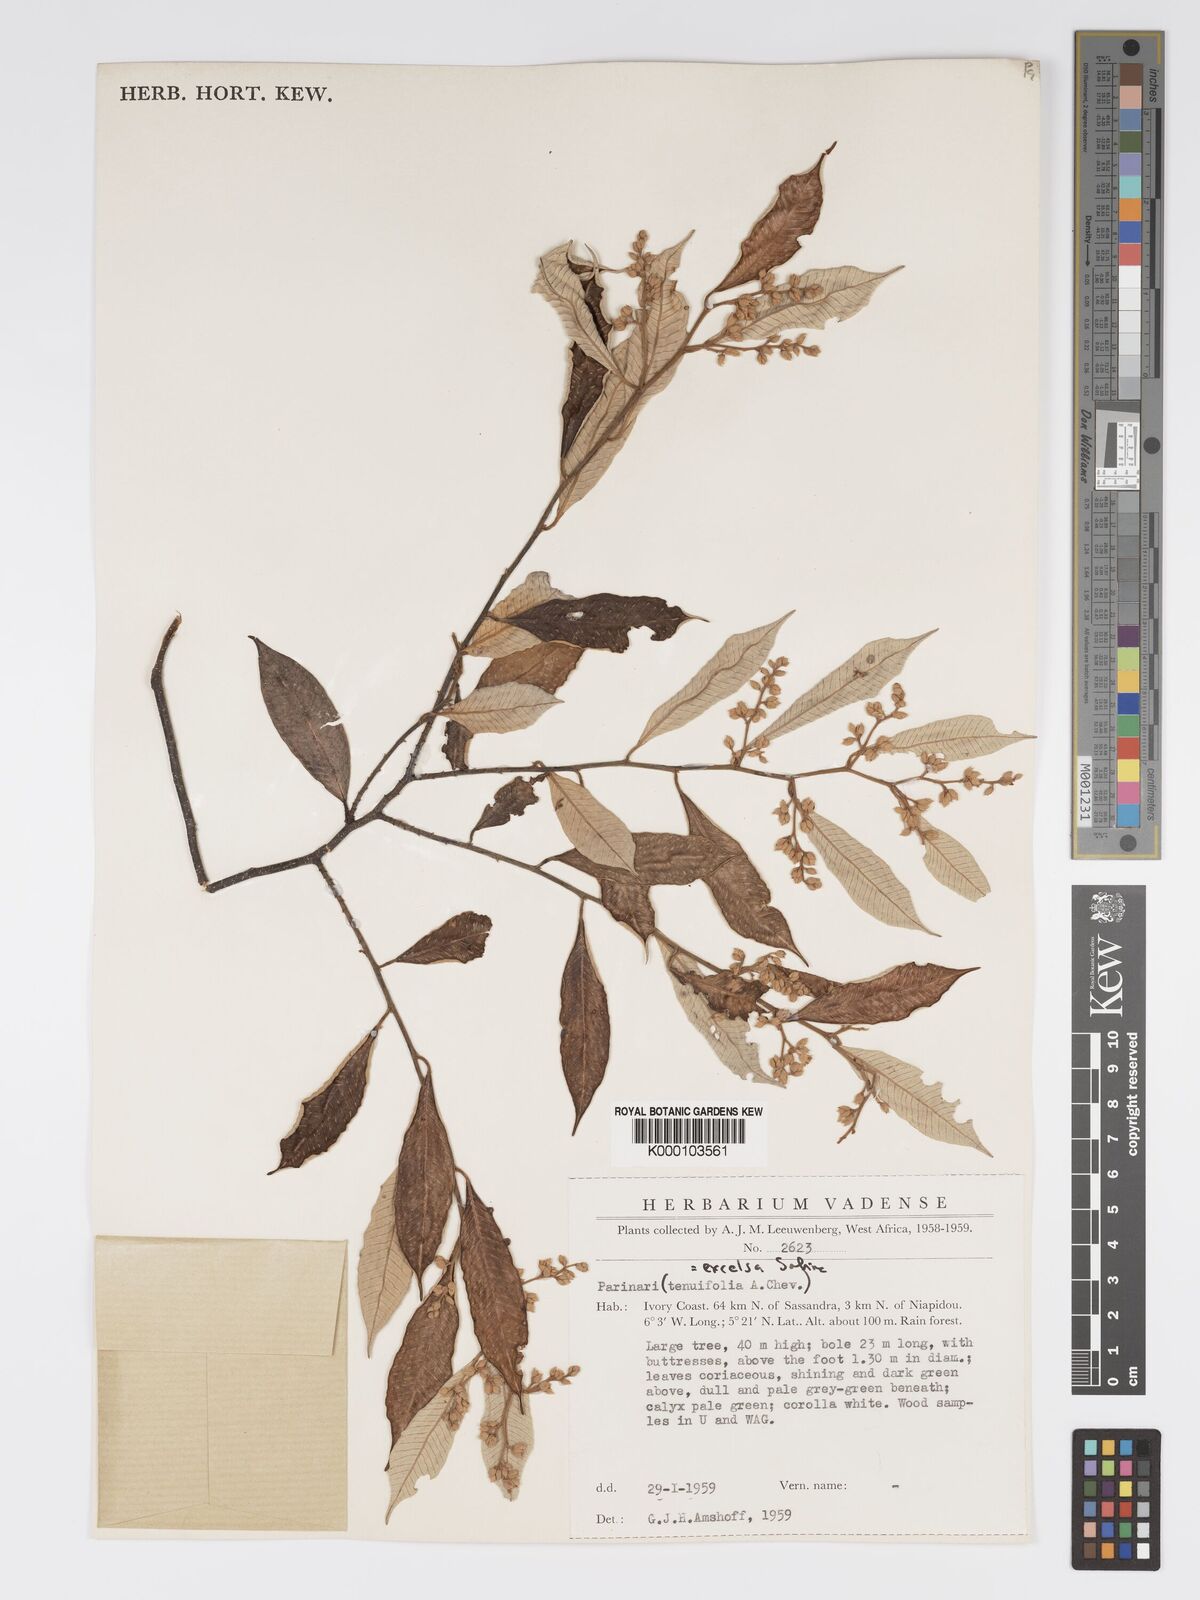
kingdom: Plantae
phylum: Tracheophyta
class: Magnoliopsida
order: Malpighiales
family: Chrysobalanaceae
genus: Parinari
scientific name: Parinari excelsa
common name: Guinea-plum
